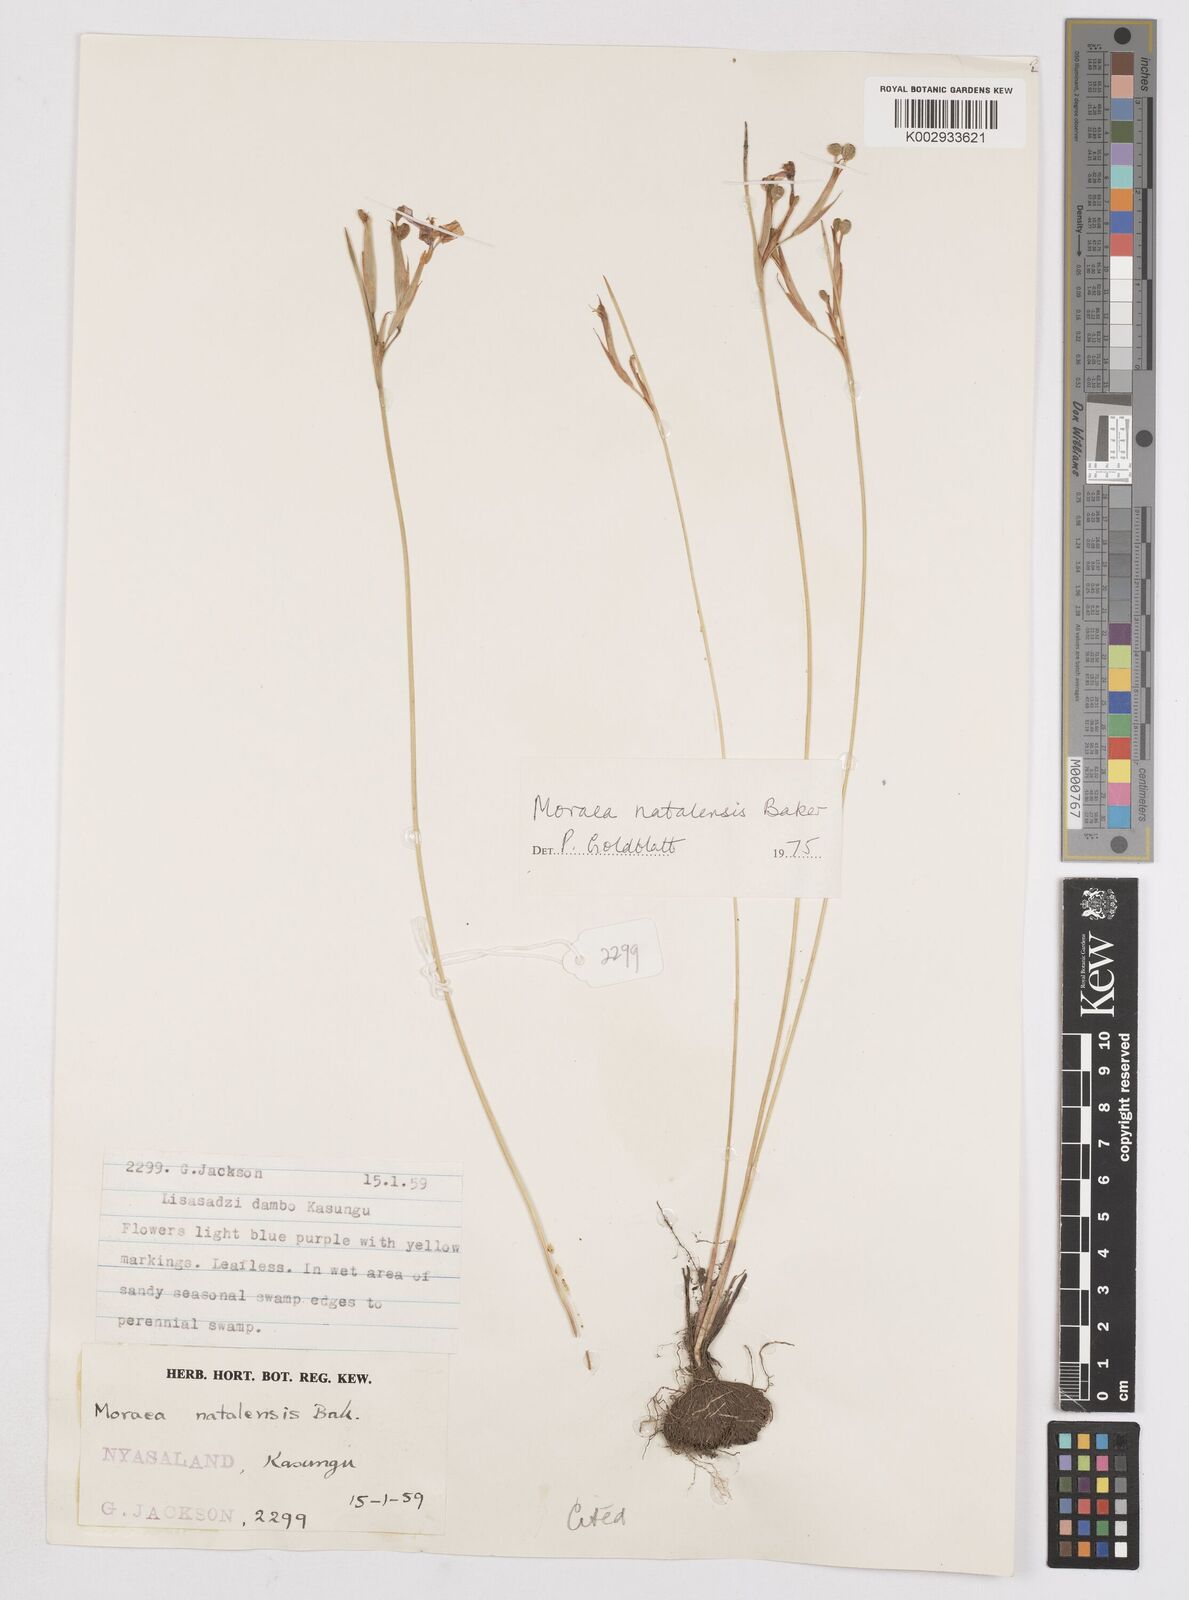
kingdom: Plantae
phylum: Tracheophyta
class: Liliopsida
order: Asparagales
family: Iridaceae
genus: Moraea
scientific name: Moraea natalensis
